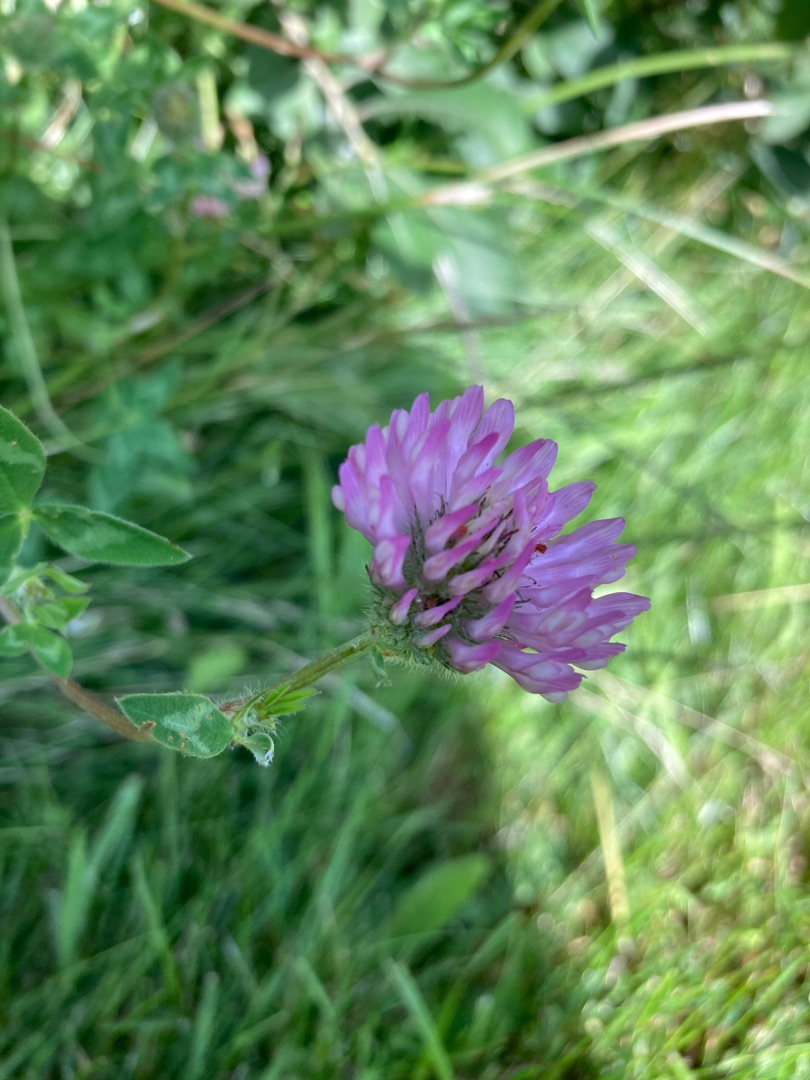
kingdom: Plantae
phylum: Tracheophyta
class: Magnoliopsida
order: Fabales
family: Fabaceae
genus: Trifolium
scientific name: Trifolium pratense
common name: Rød-kløver
